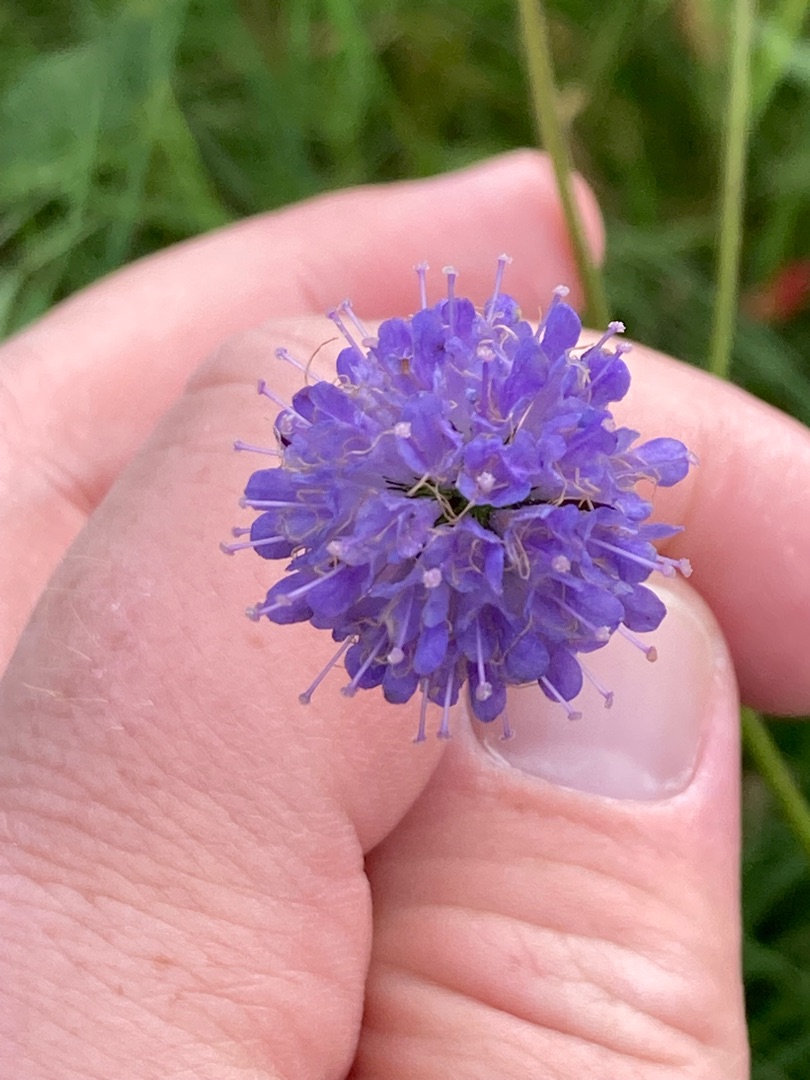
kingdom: Plantae
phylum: Tracheophyta
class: Magnoliopsida
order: Dipsacales
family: Caprifoliaceae
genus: Succisa
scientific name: Succisa pratensis
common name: Djævelsbid
